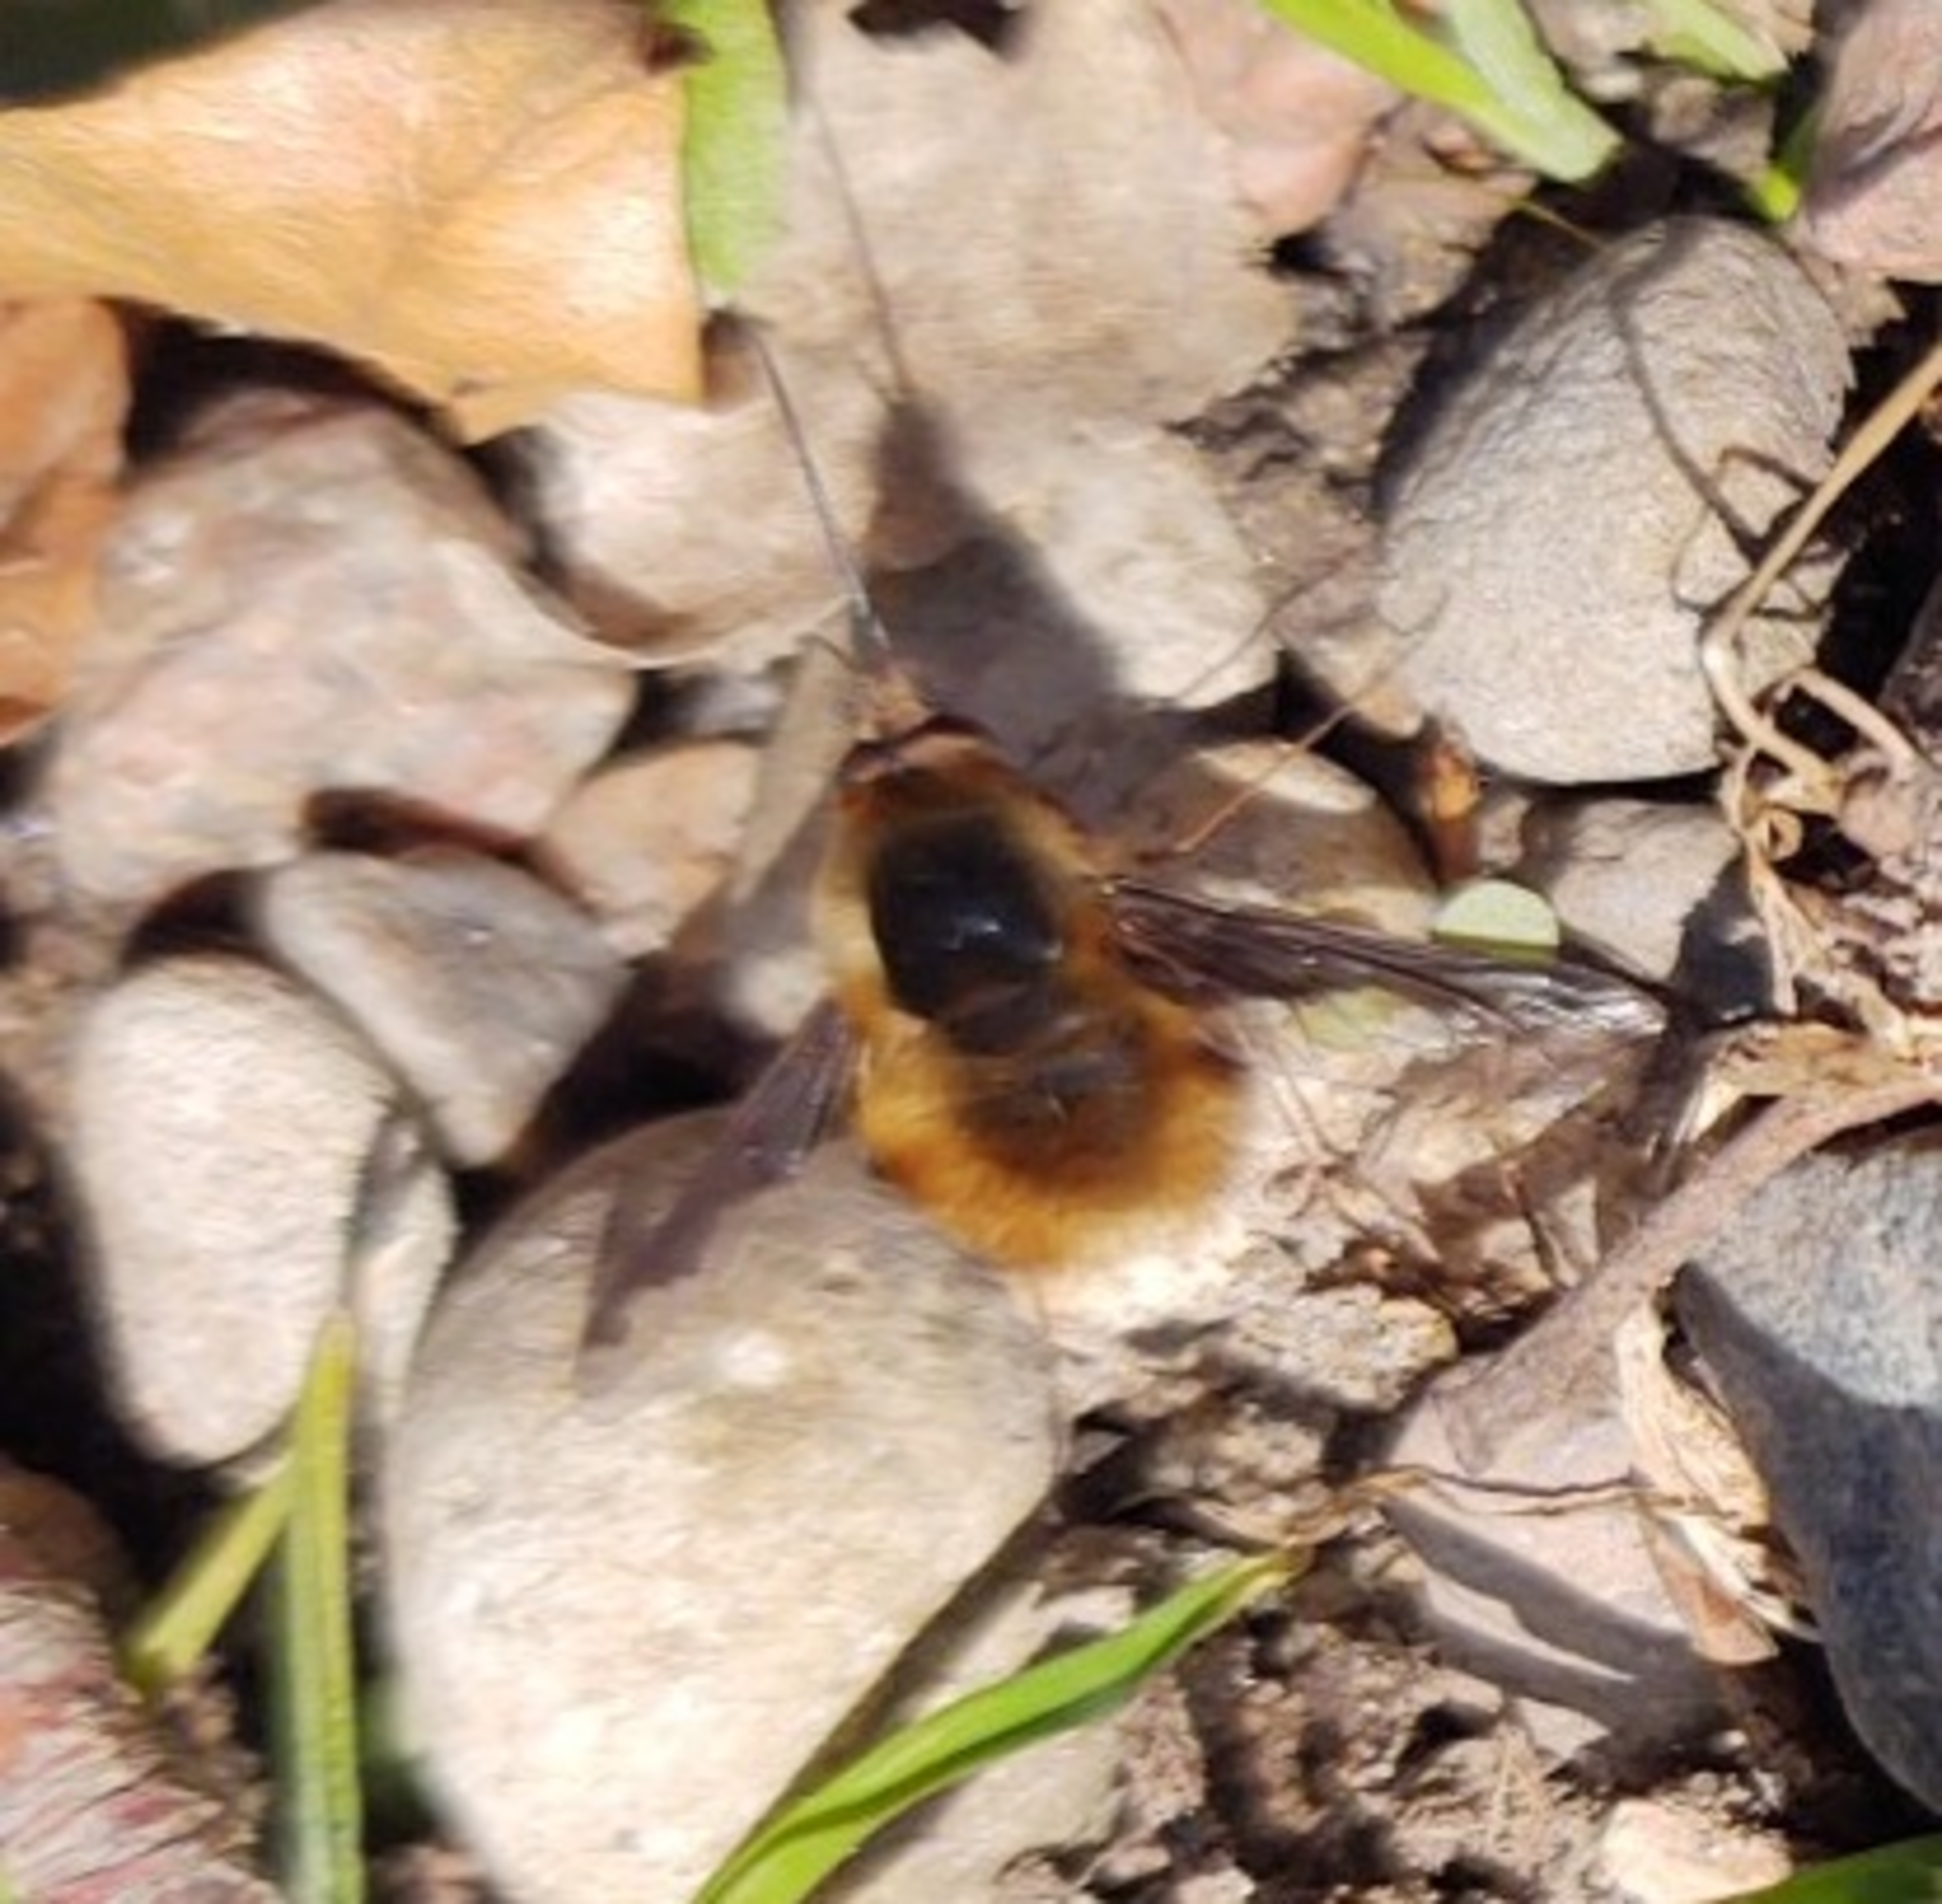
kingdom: Animalia
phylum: Arthropoda
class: Insecta
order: Diptera
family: Bombyliidae
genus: Bombylius
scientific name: Bombylius major
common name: Stor humleflue
